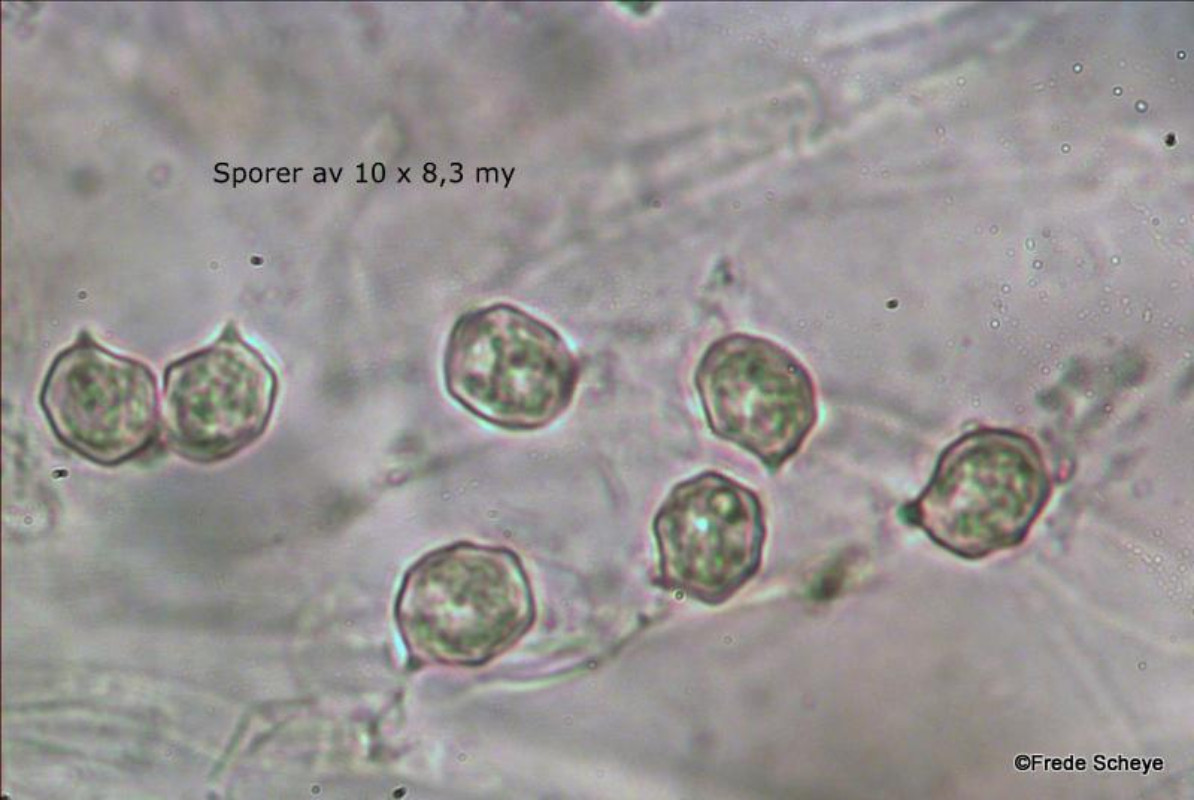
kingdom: Fungi
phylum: Basidiomycota
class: Agaricomycetes
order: Agaricales
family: Entolomataceae
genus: Entoloma
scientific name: Entoloma clypeatum
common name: flammet rødblad
